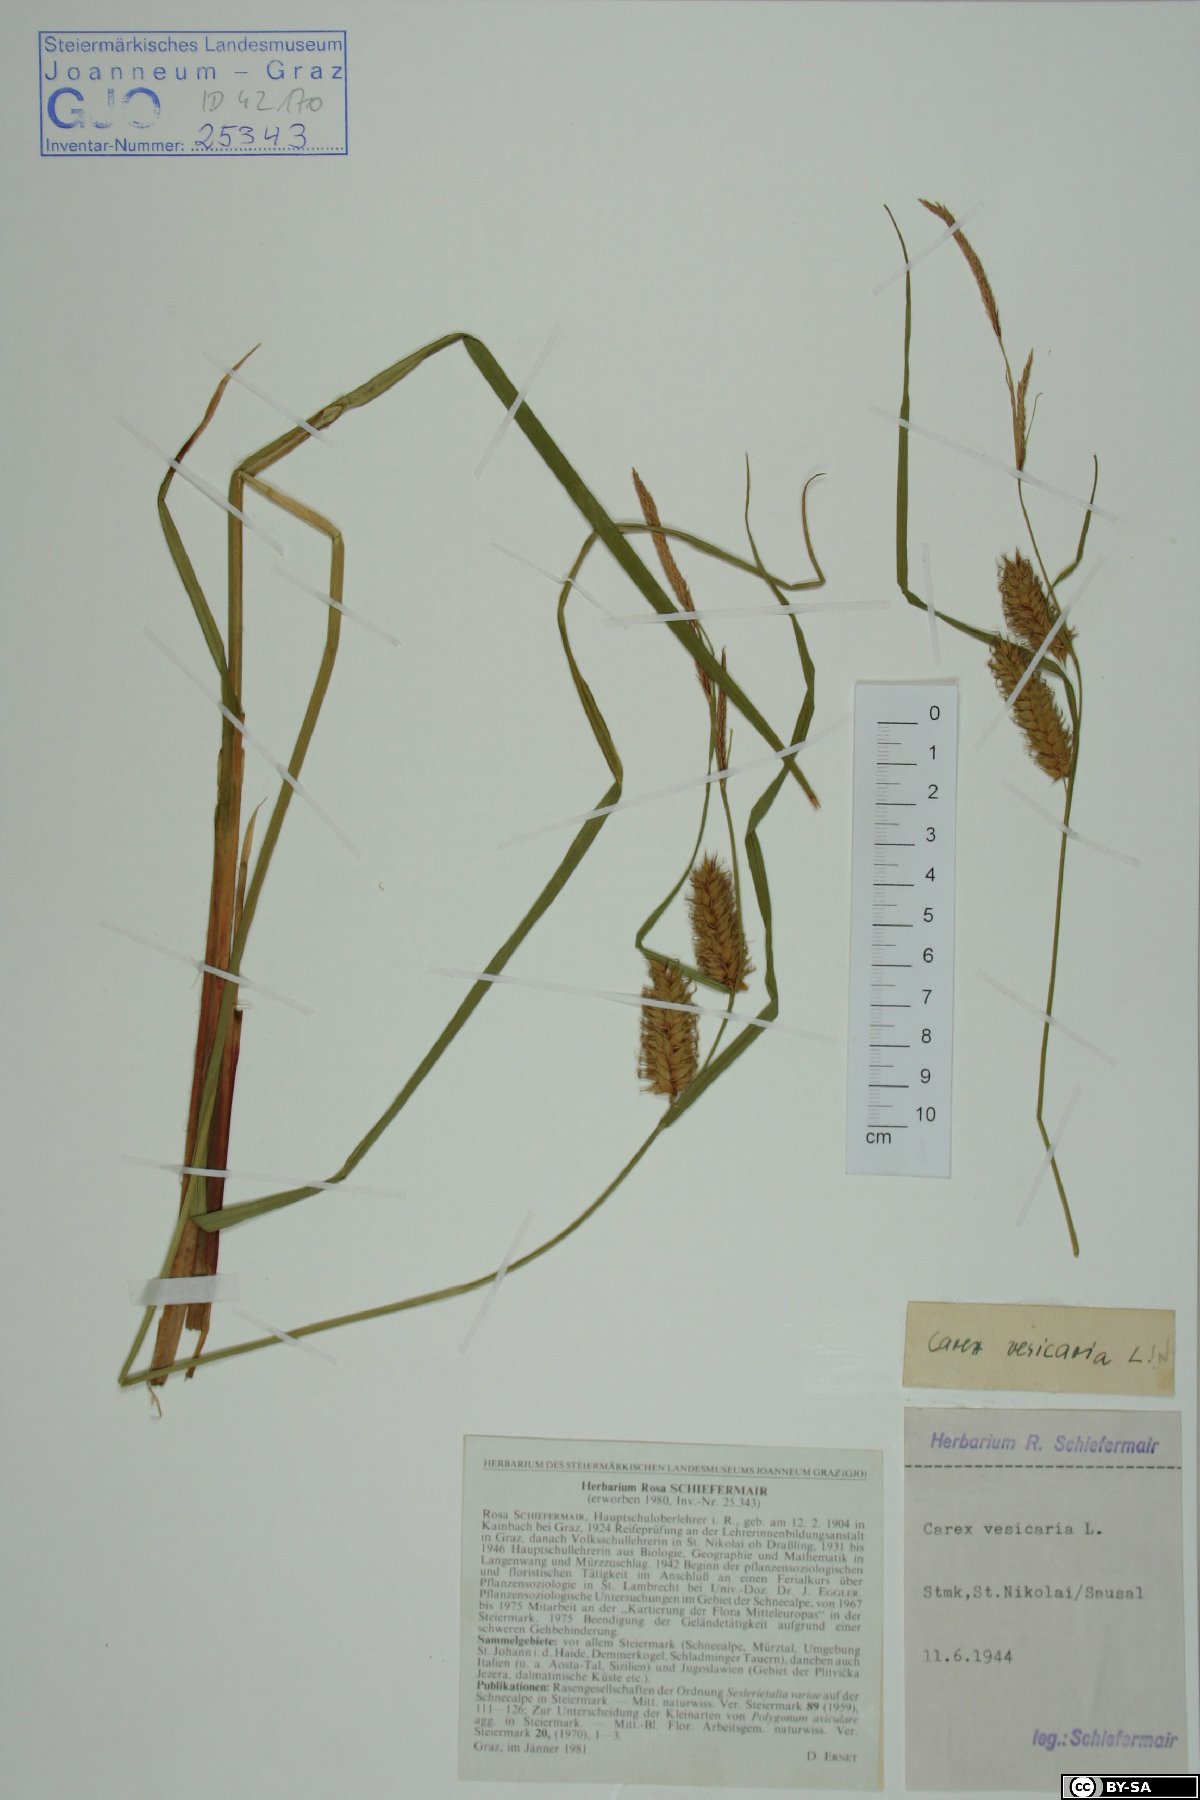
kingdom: Plantae
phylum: Tracheophyta
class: Liliopsida
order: Poales
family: Cyperaceae
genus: Carex
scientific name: Carex vesicaria
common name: Bladder-sedge
